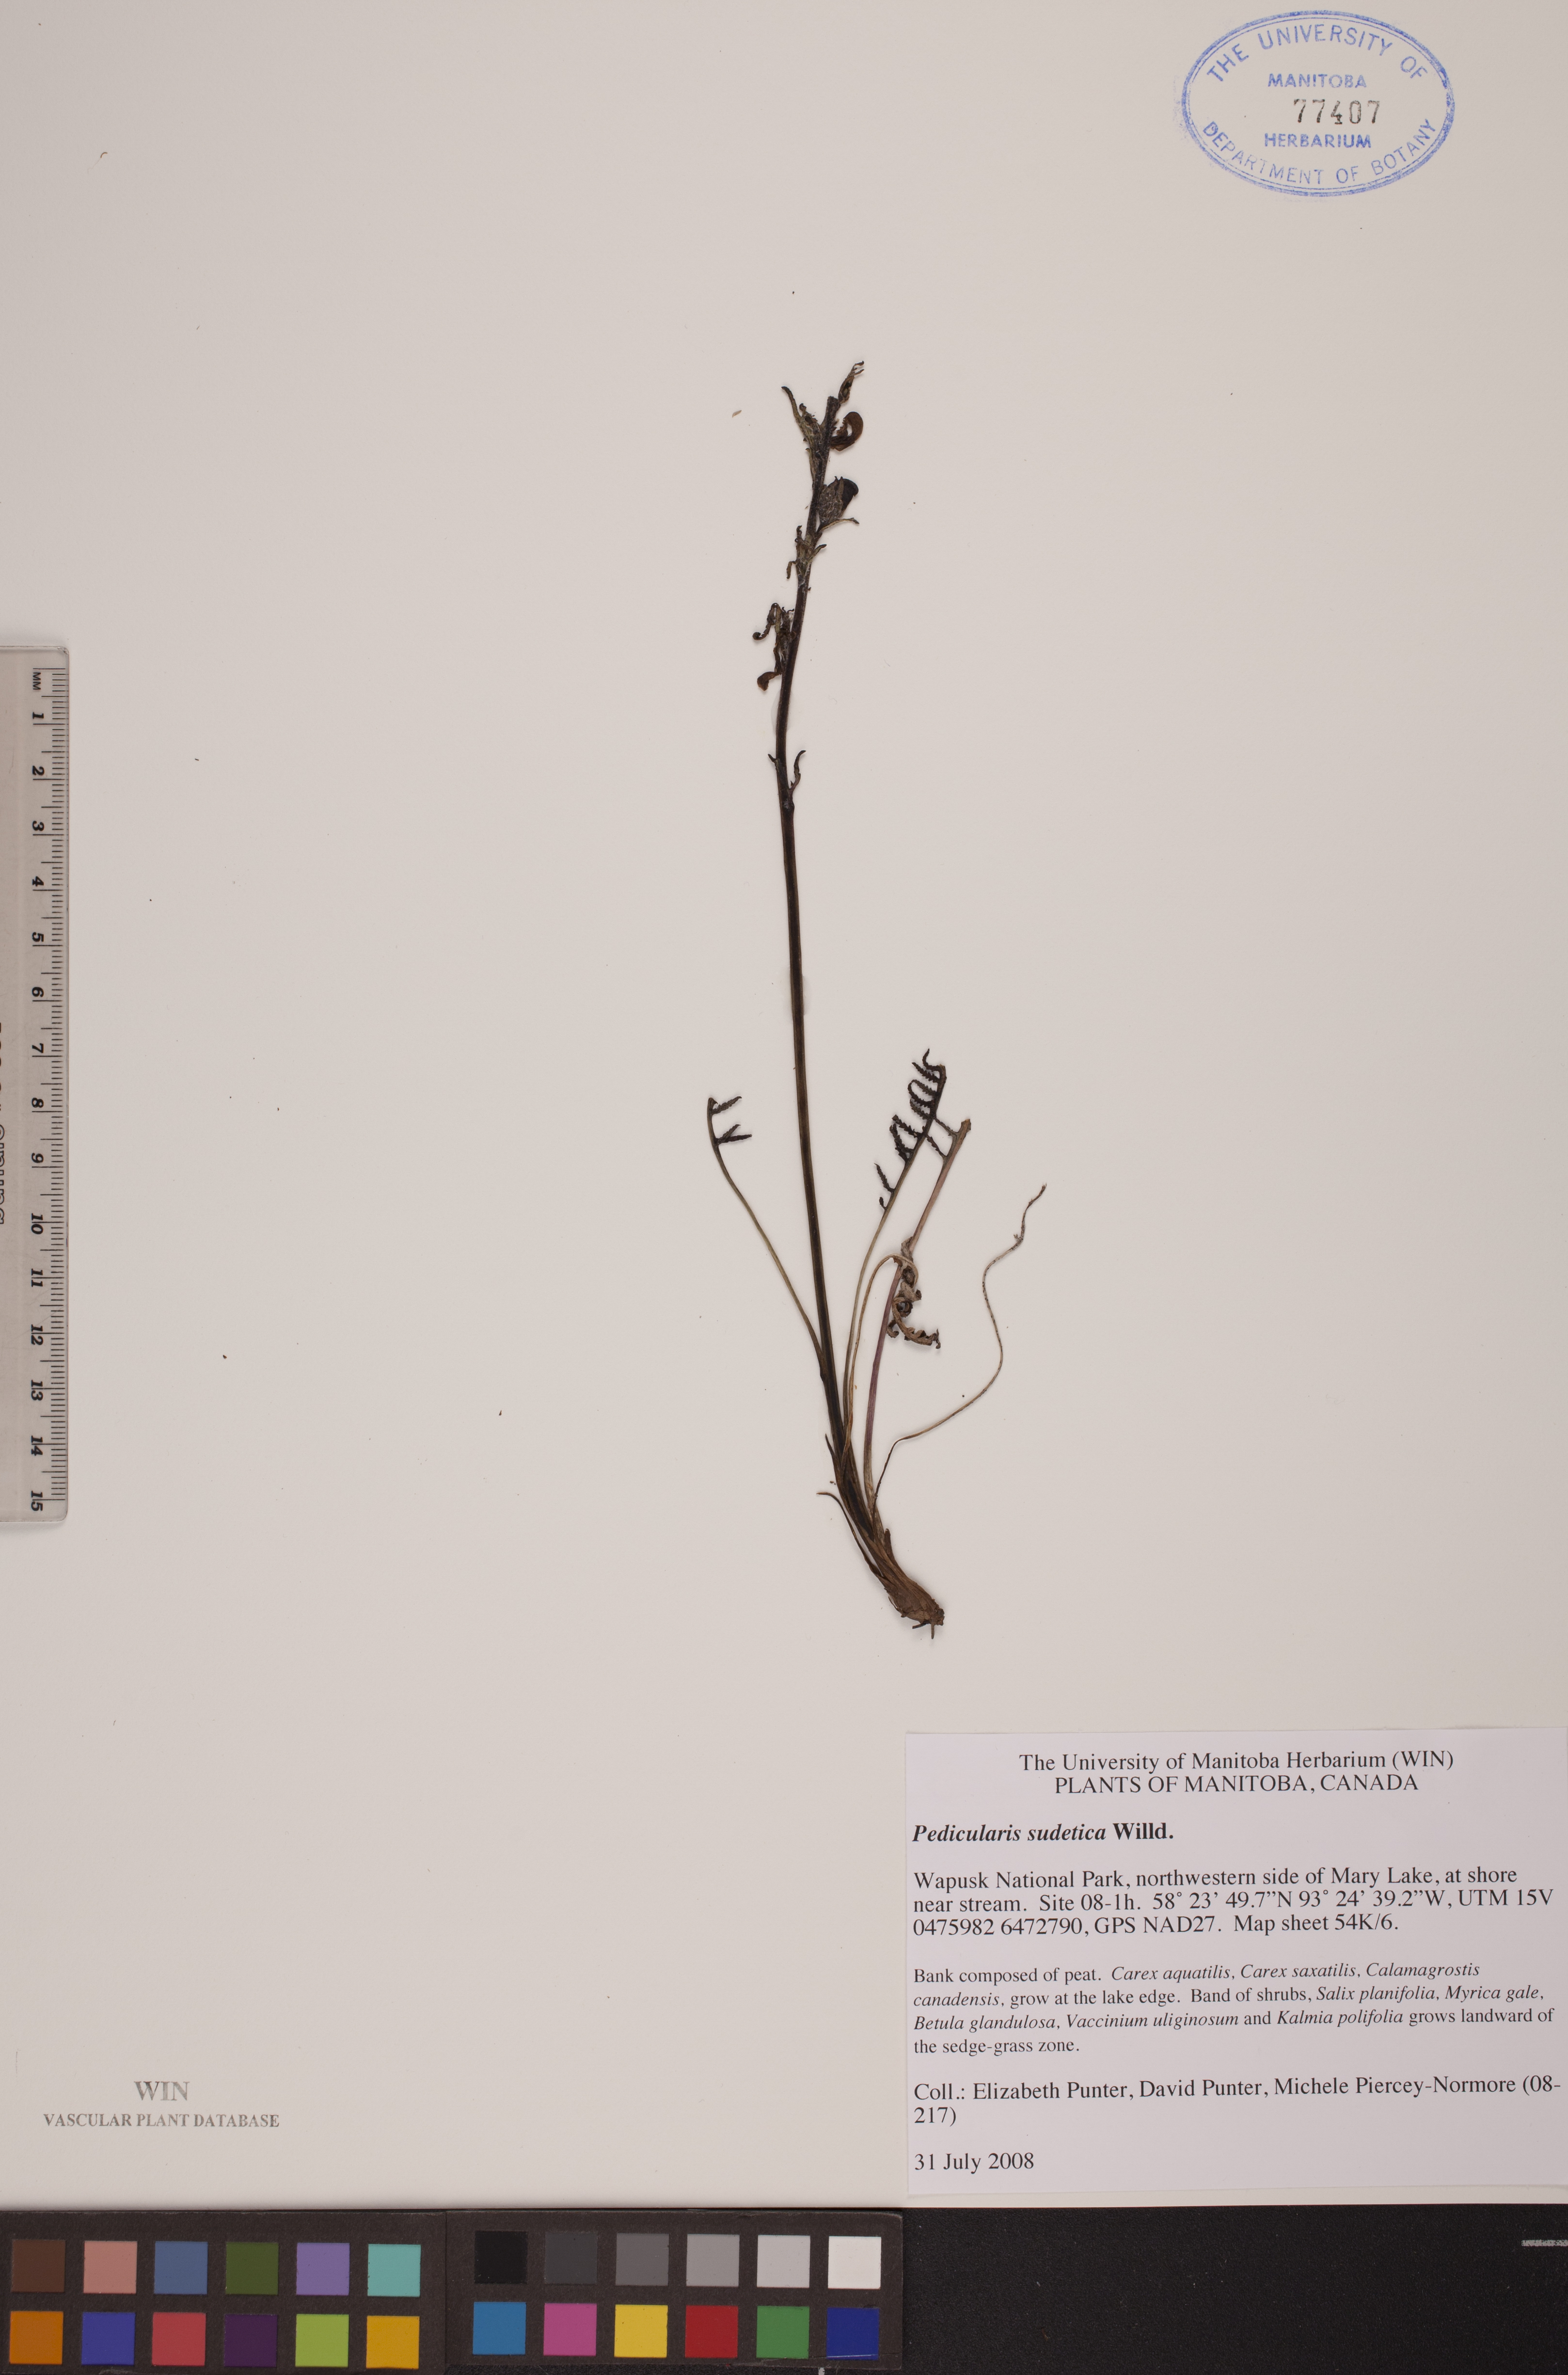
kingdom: Plantae
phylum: Tracheophyta
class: Magnoliopsida
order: Lamiales
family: Orobanchaceae
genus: Pedicularis
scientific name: Pedicularis sudetica
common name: Sudeten lousewort
